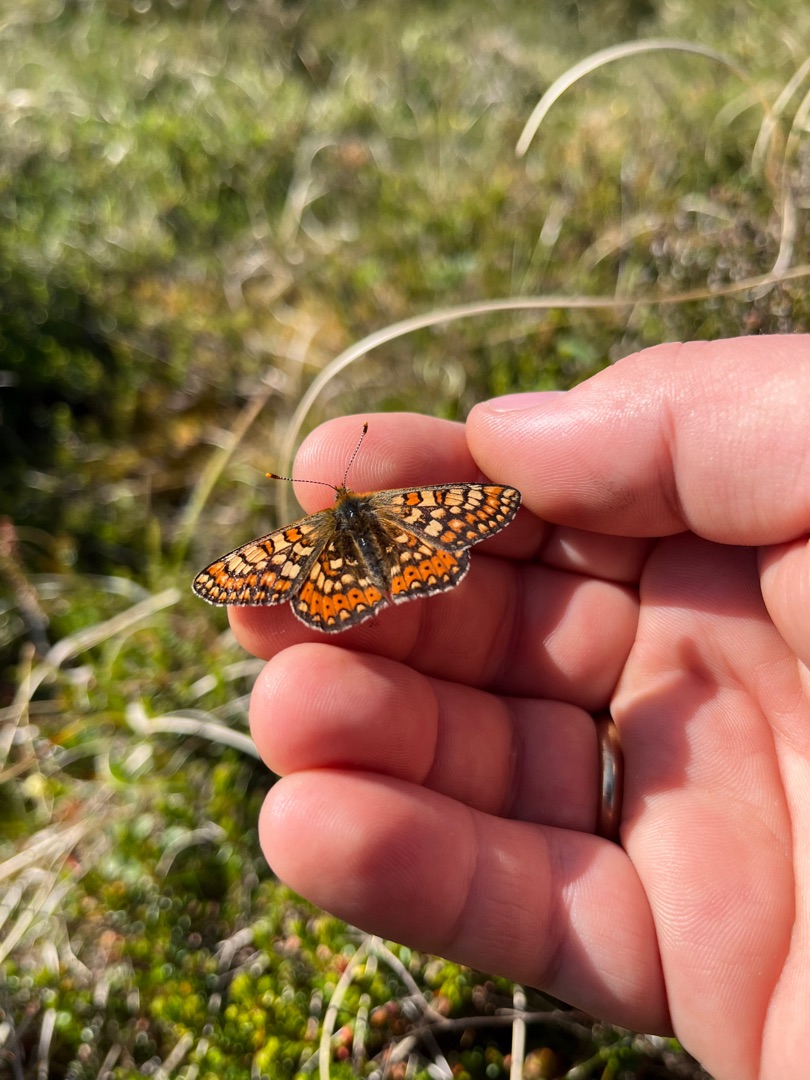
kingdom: Animalia
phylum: Arthropoda
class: Insecta
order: Lepidoptera
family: Nymphalidae
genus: Euphydryas
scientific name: Euphydryas aurinia
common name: Hedepletvinge
